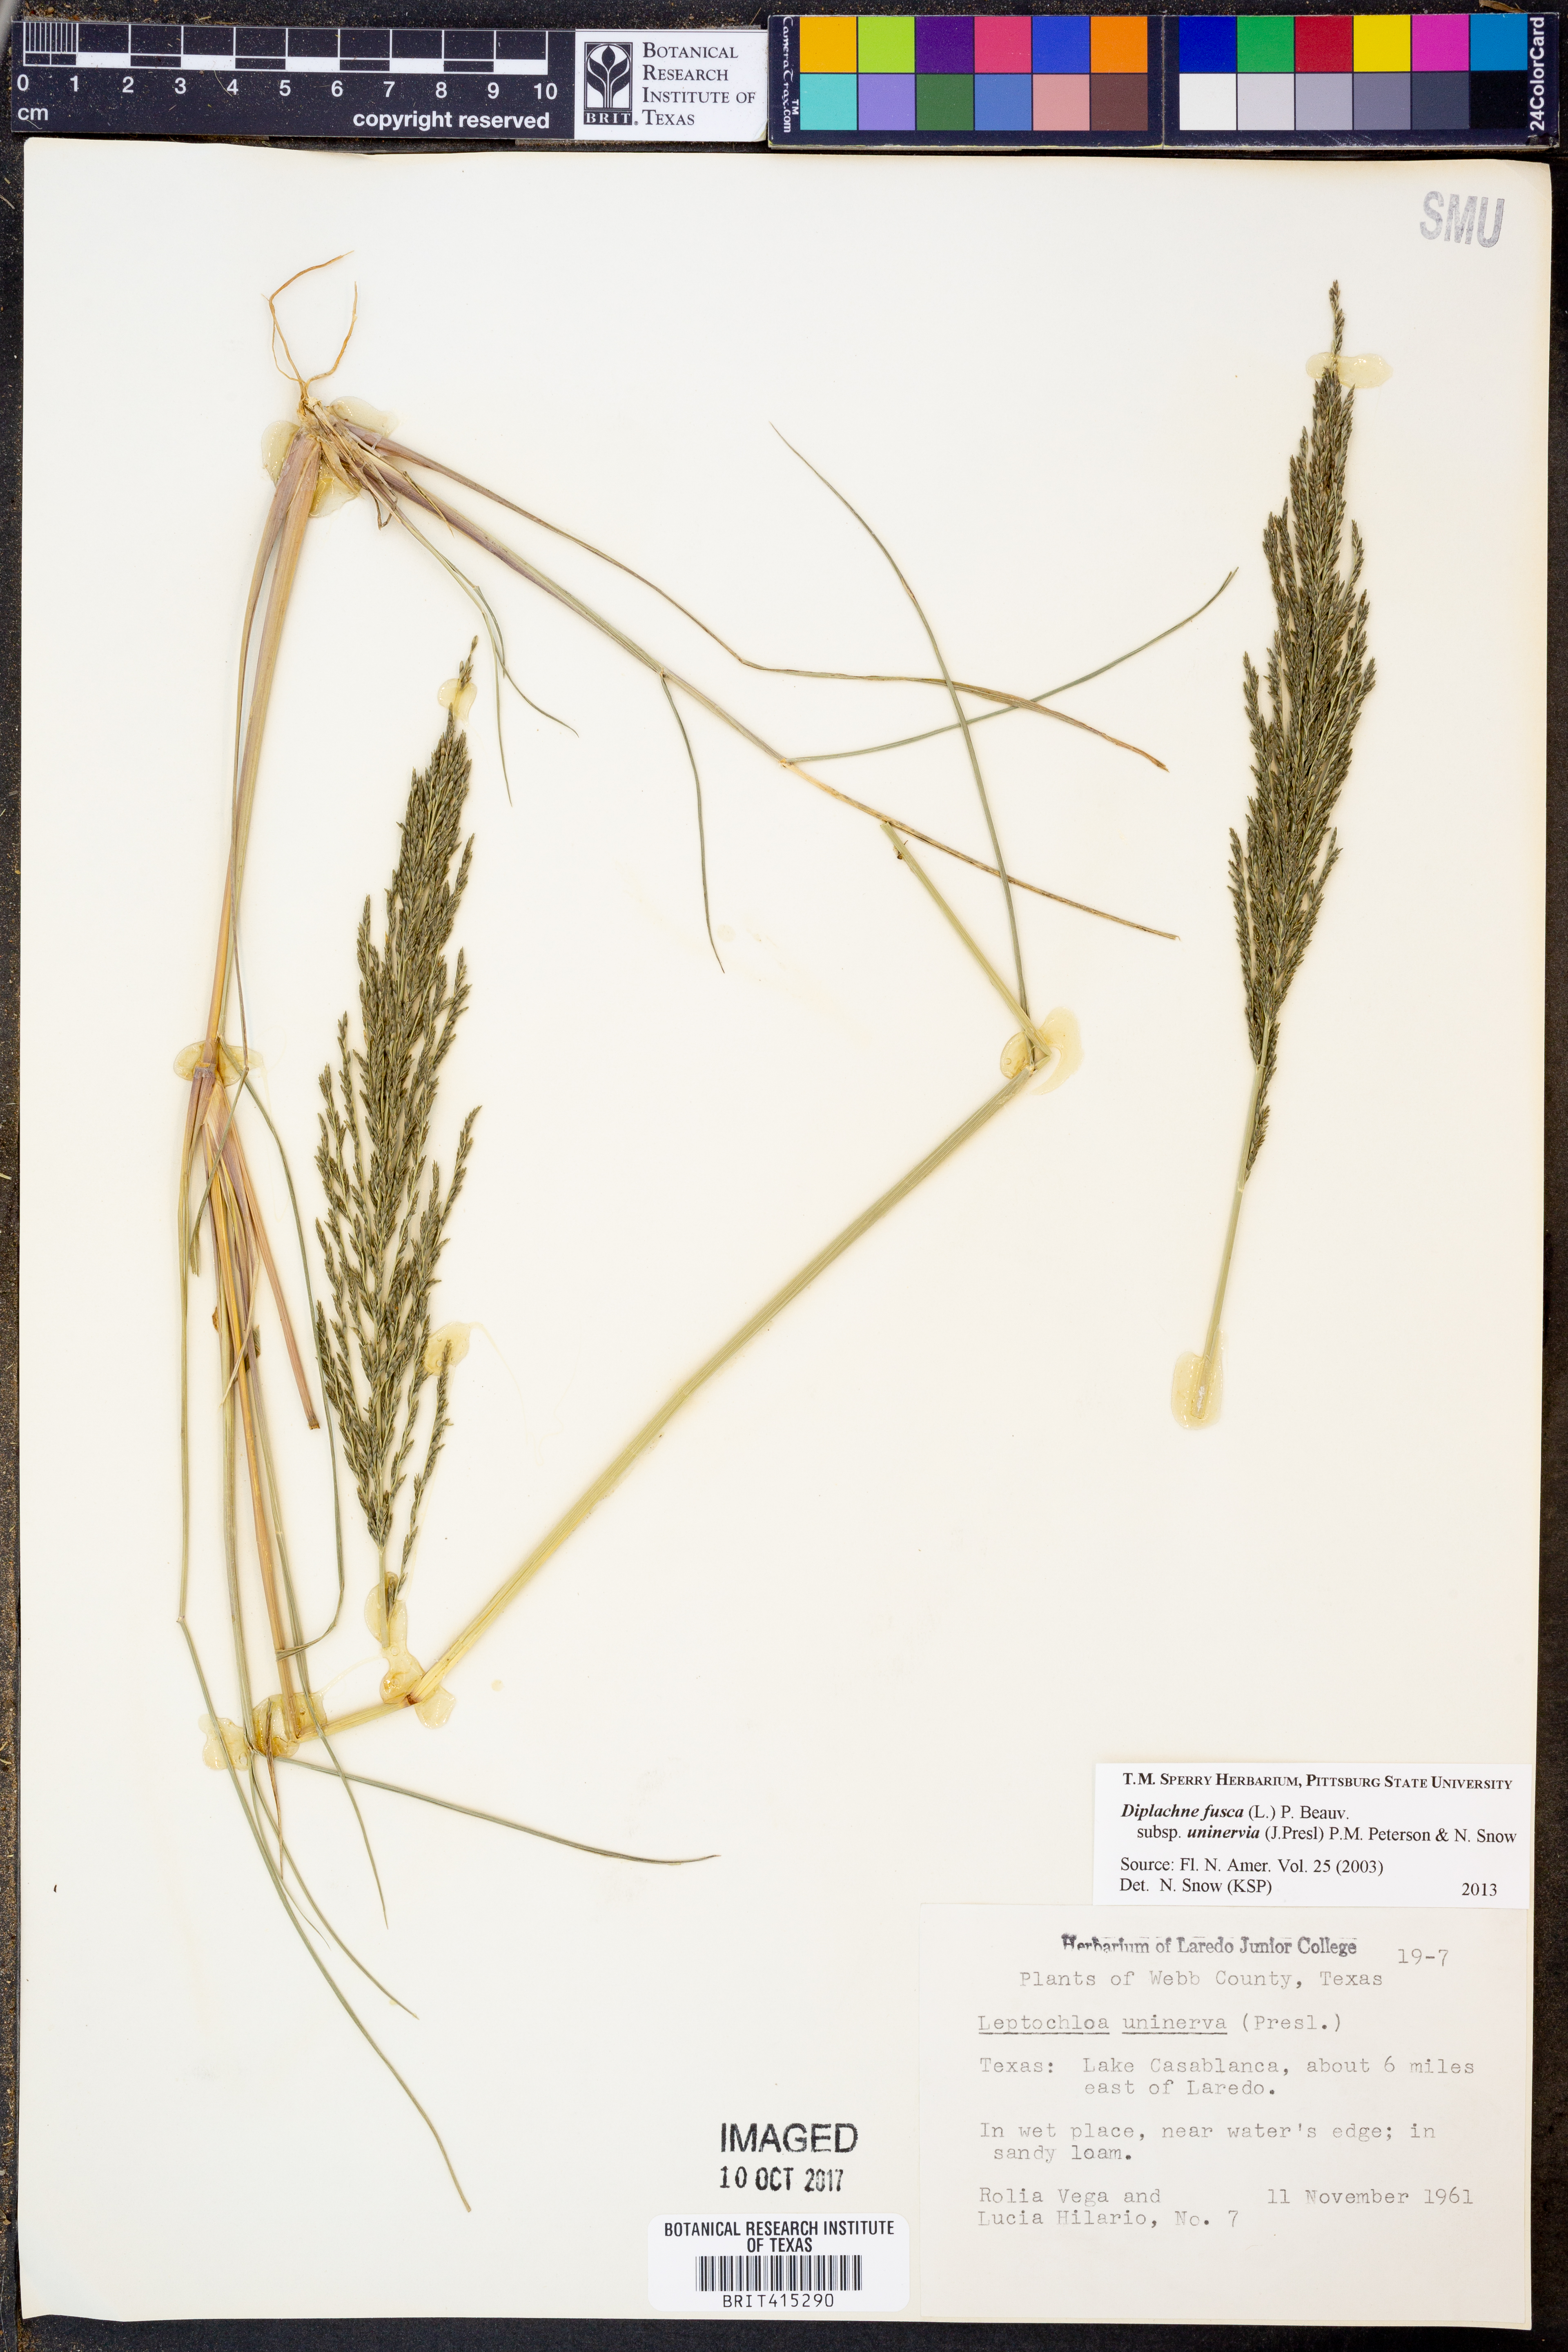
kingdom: Plantae
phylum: Tracheophyta
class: Liliopsida
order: Poales
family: Poaceae
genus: Diplachne
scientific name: Diplachne fusca
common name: Brown beetle grass
